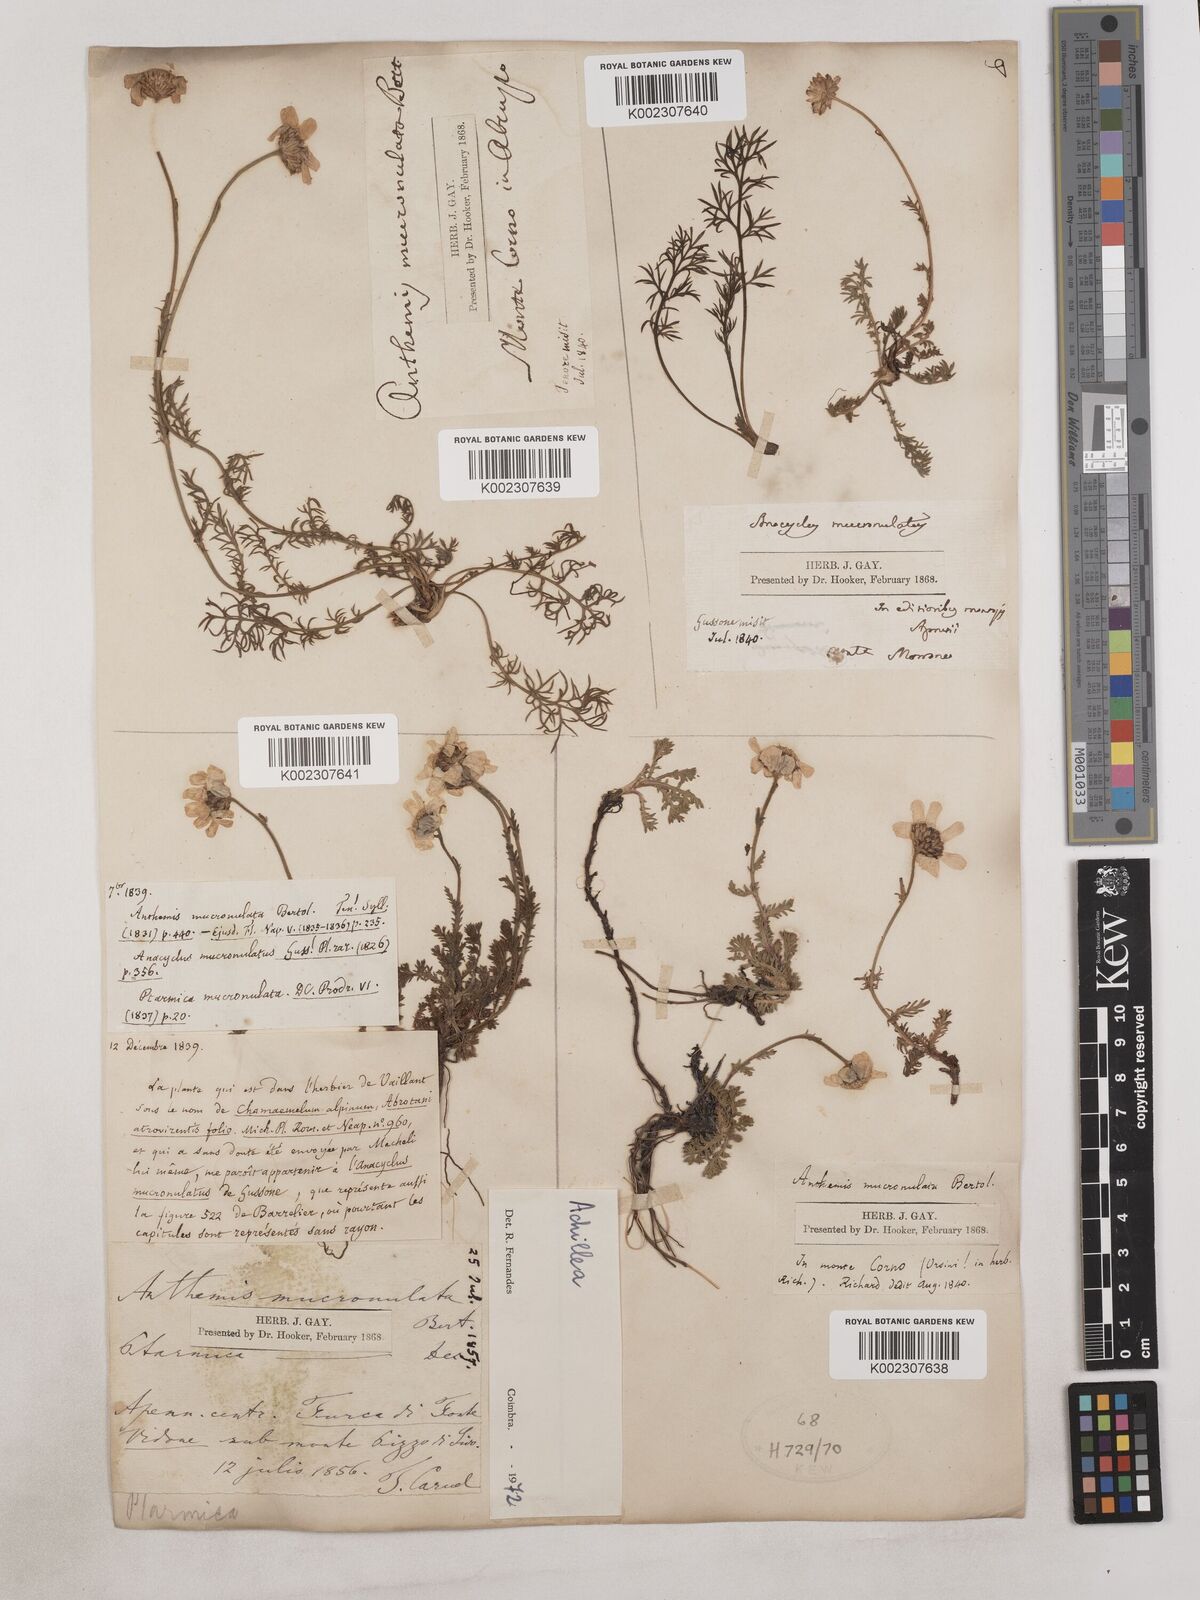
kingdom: Plantae
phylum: Tracheophyta
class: Magnoliopsida
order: Asterales
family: Asteraceae
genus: Achillea
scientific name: Achillea
